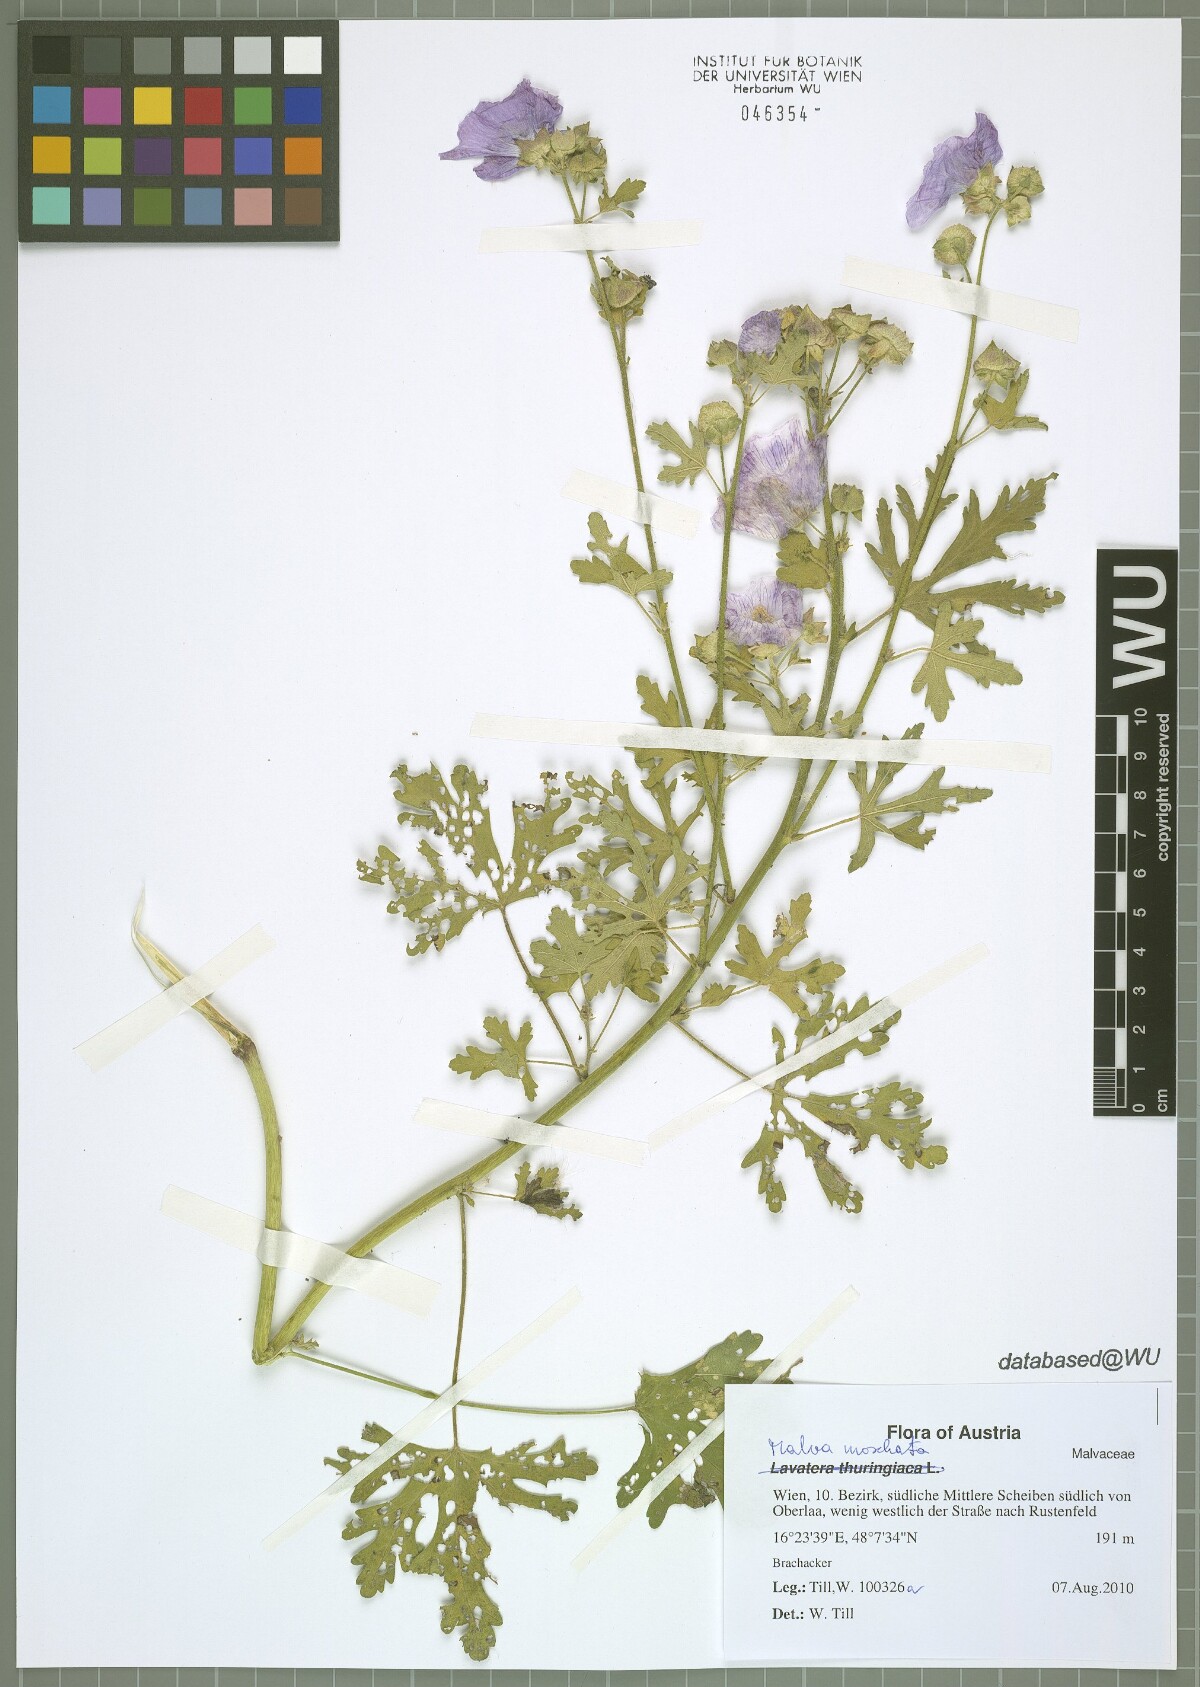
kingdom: Plantae
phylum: Tracheophyta
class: Magnoliopsida
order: Malvales
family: Malvaceae
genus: Malva
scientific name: Malva moschata
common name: Musk mallow
